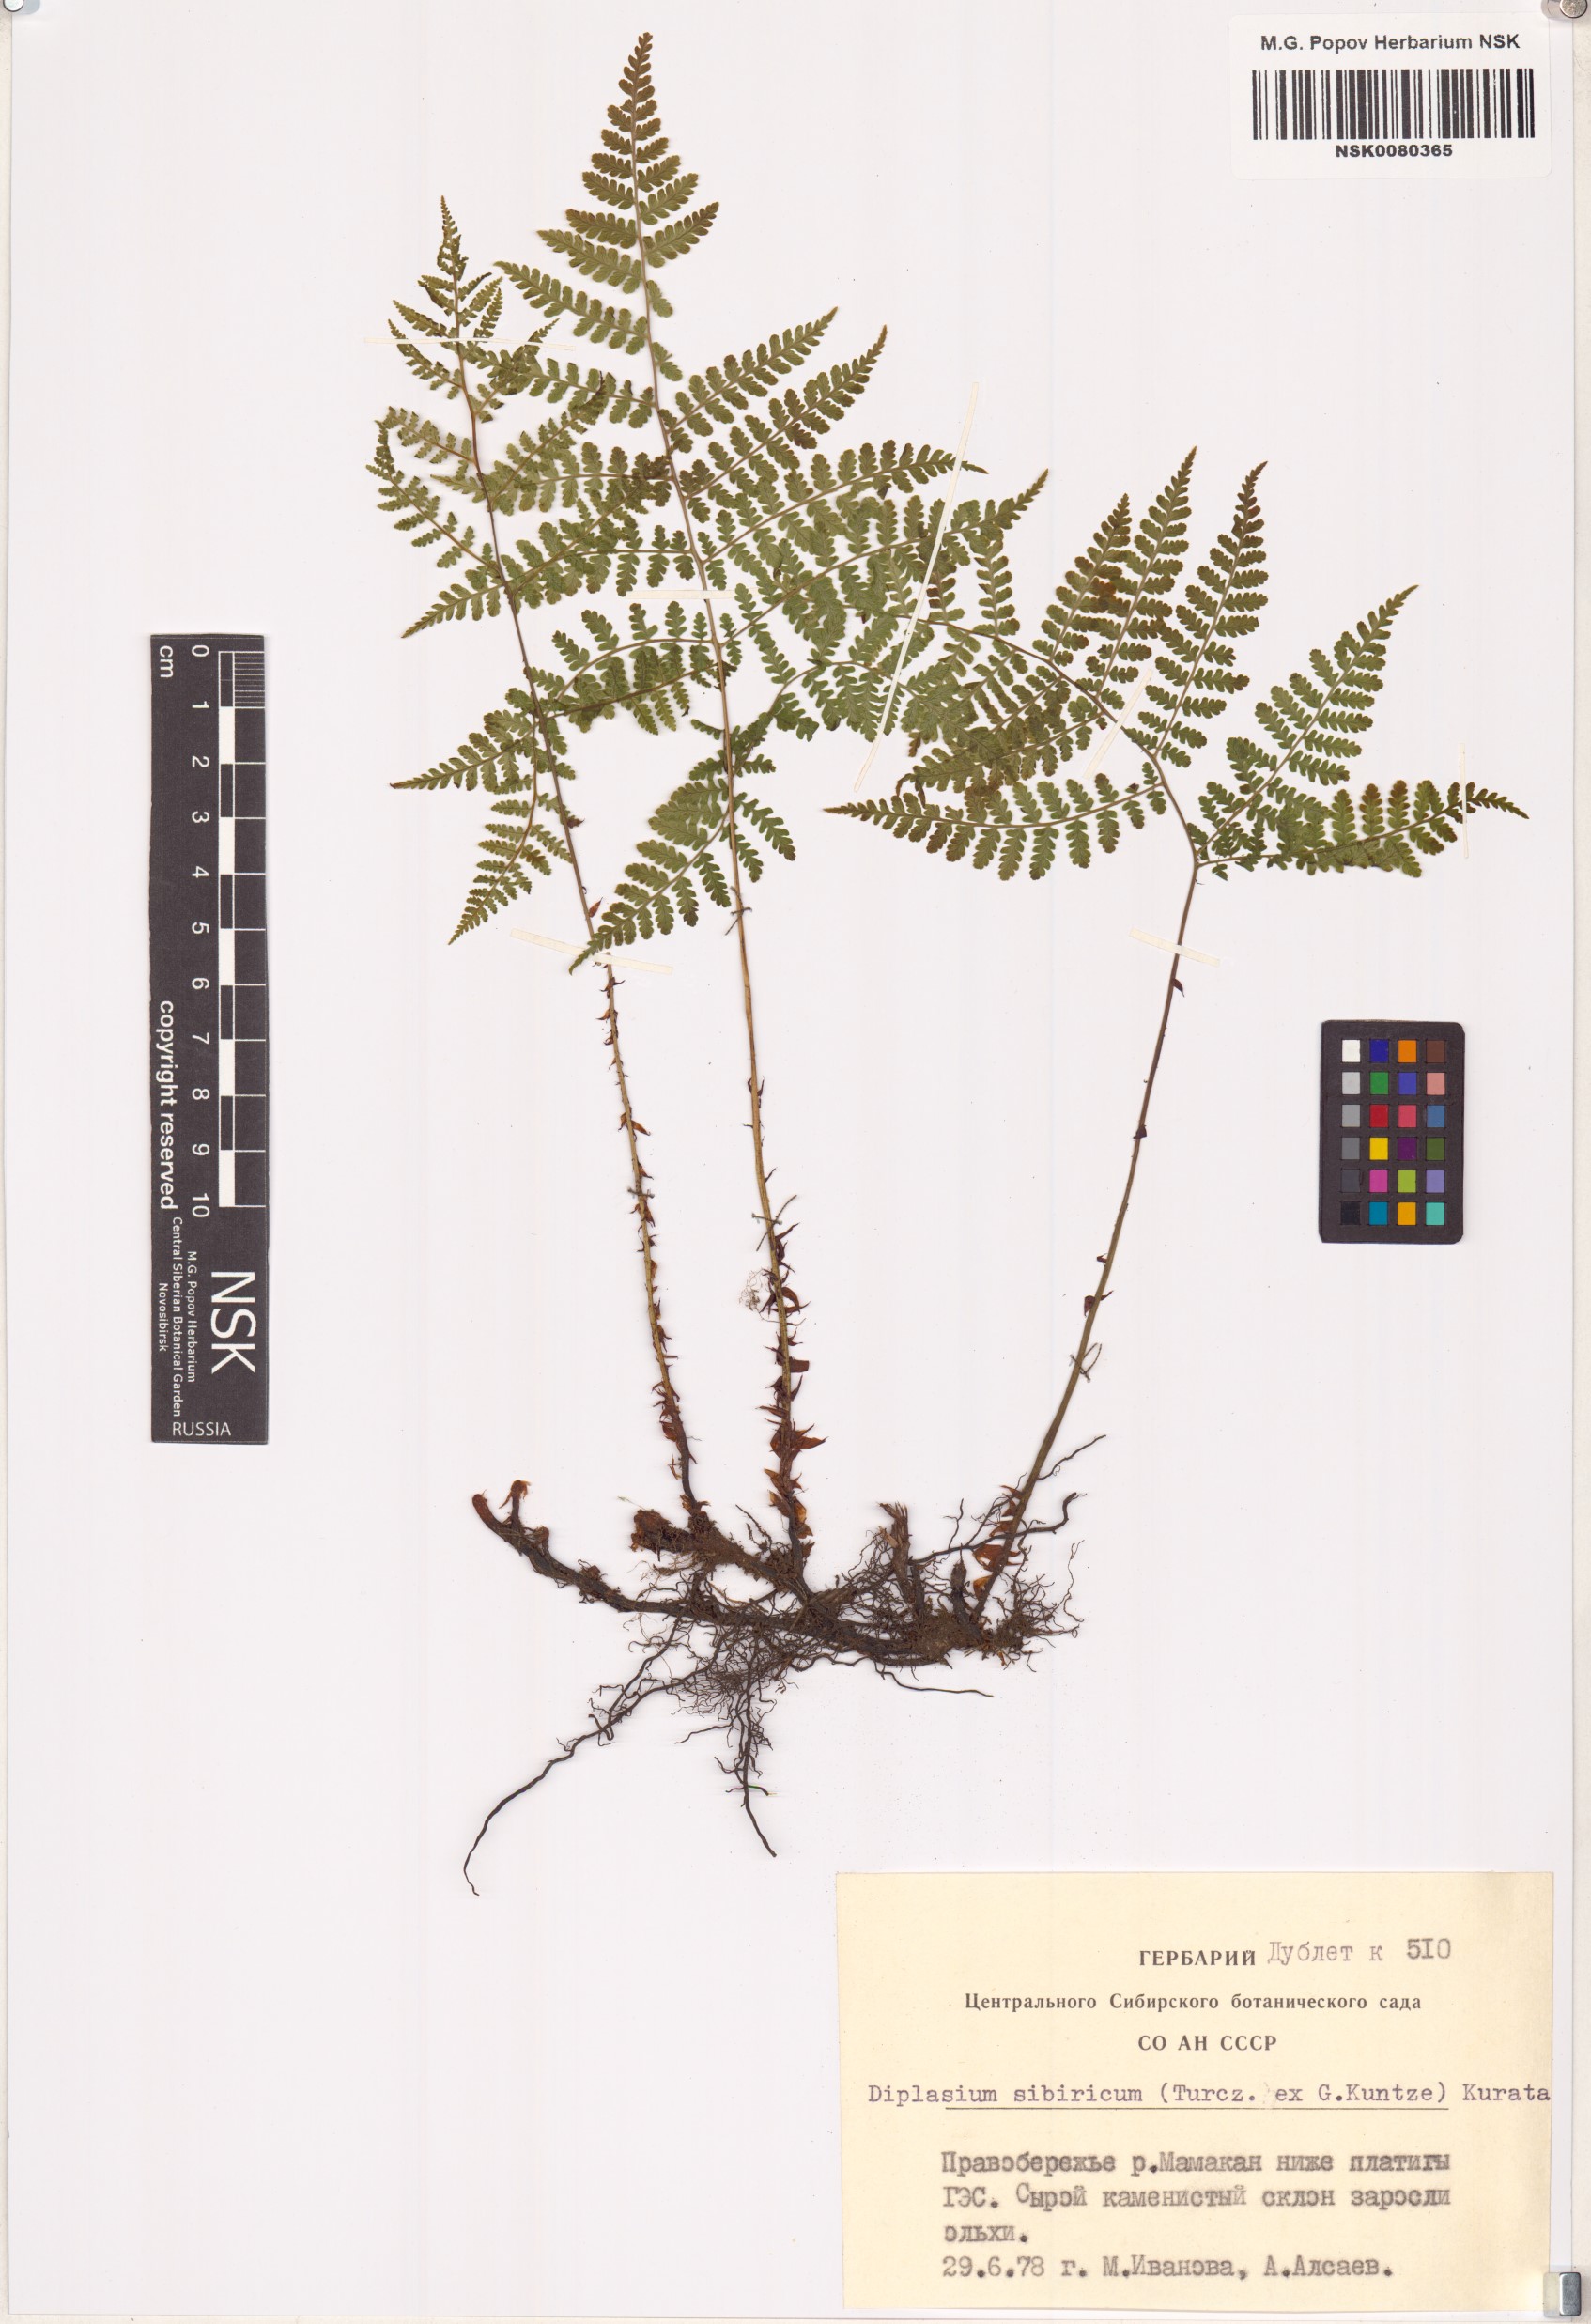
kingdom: Plantae
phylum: Tracheophyta
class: Polypodiopsida
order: Polypodiales
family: Athyriaceae
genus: Diplazium
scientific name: Diplazium sibiricum
